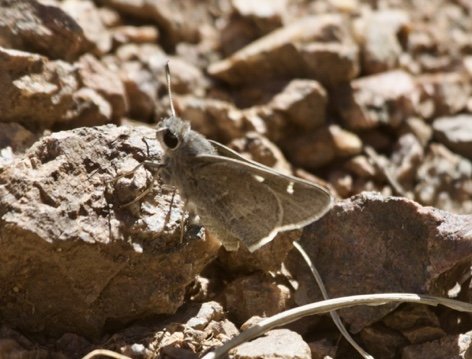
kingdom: Animalia
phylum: Arthropoda
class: Insecta
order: Lepidoptera
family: Hesperiidae
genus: Atrytonopsis
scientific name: Atrytonopsis pittacus
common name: White-barred Skipper
